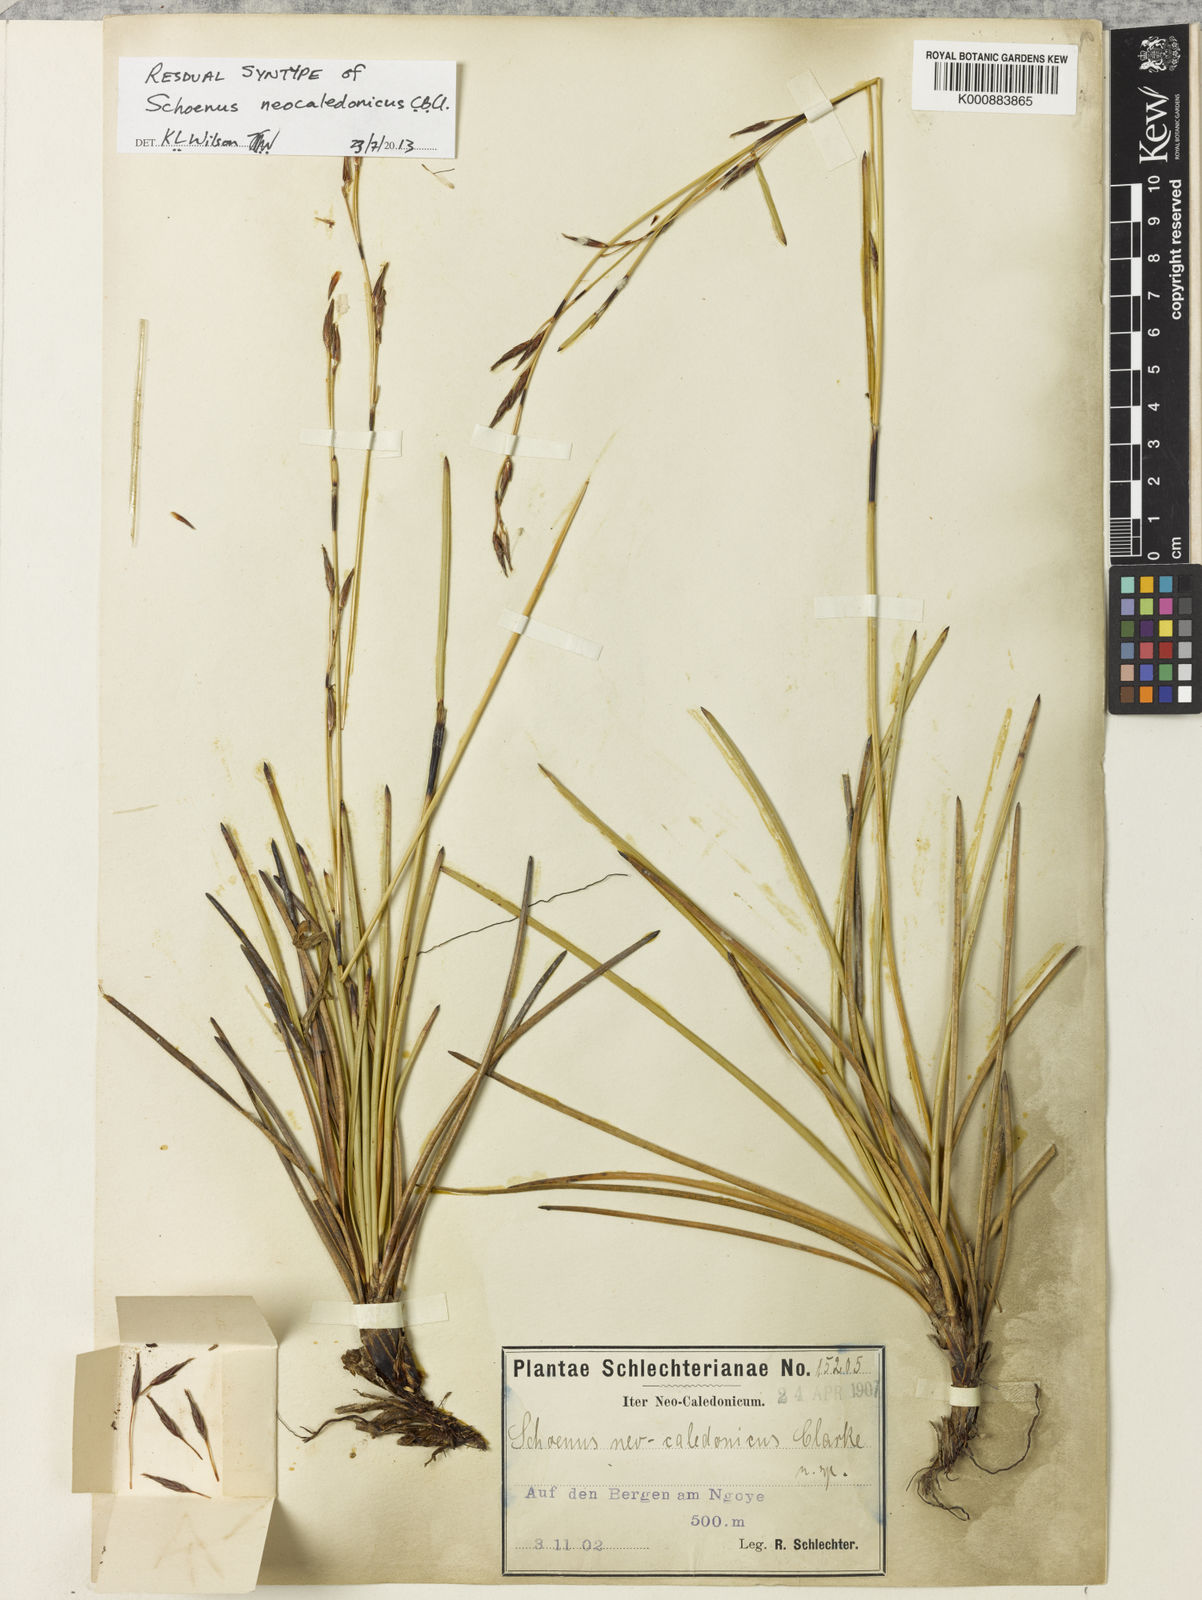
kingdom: Plantae
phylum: Tracheophyta
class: Liliopsida
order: Poales
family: Cyperaceae
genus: Schoenus
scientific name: Schoenus neocaledonicus
